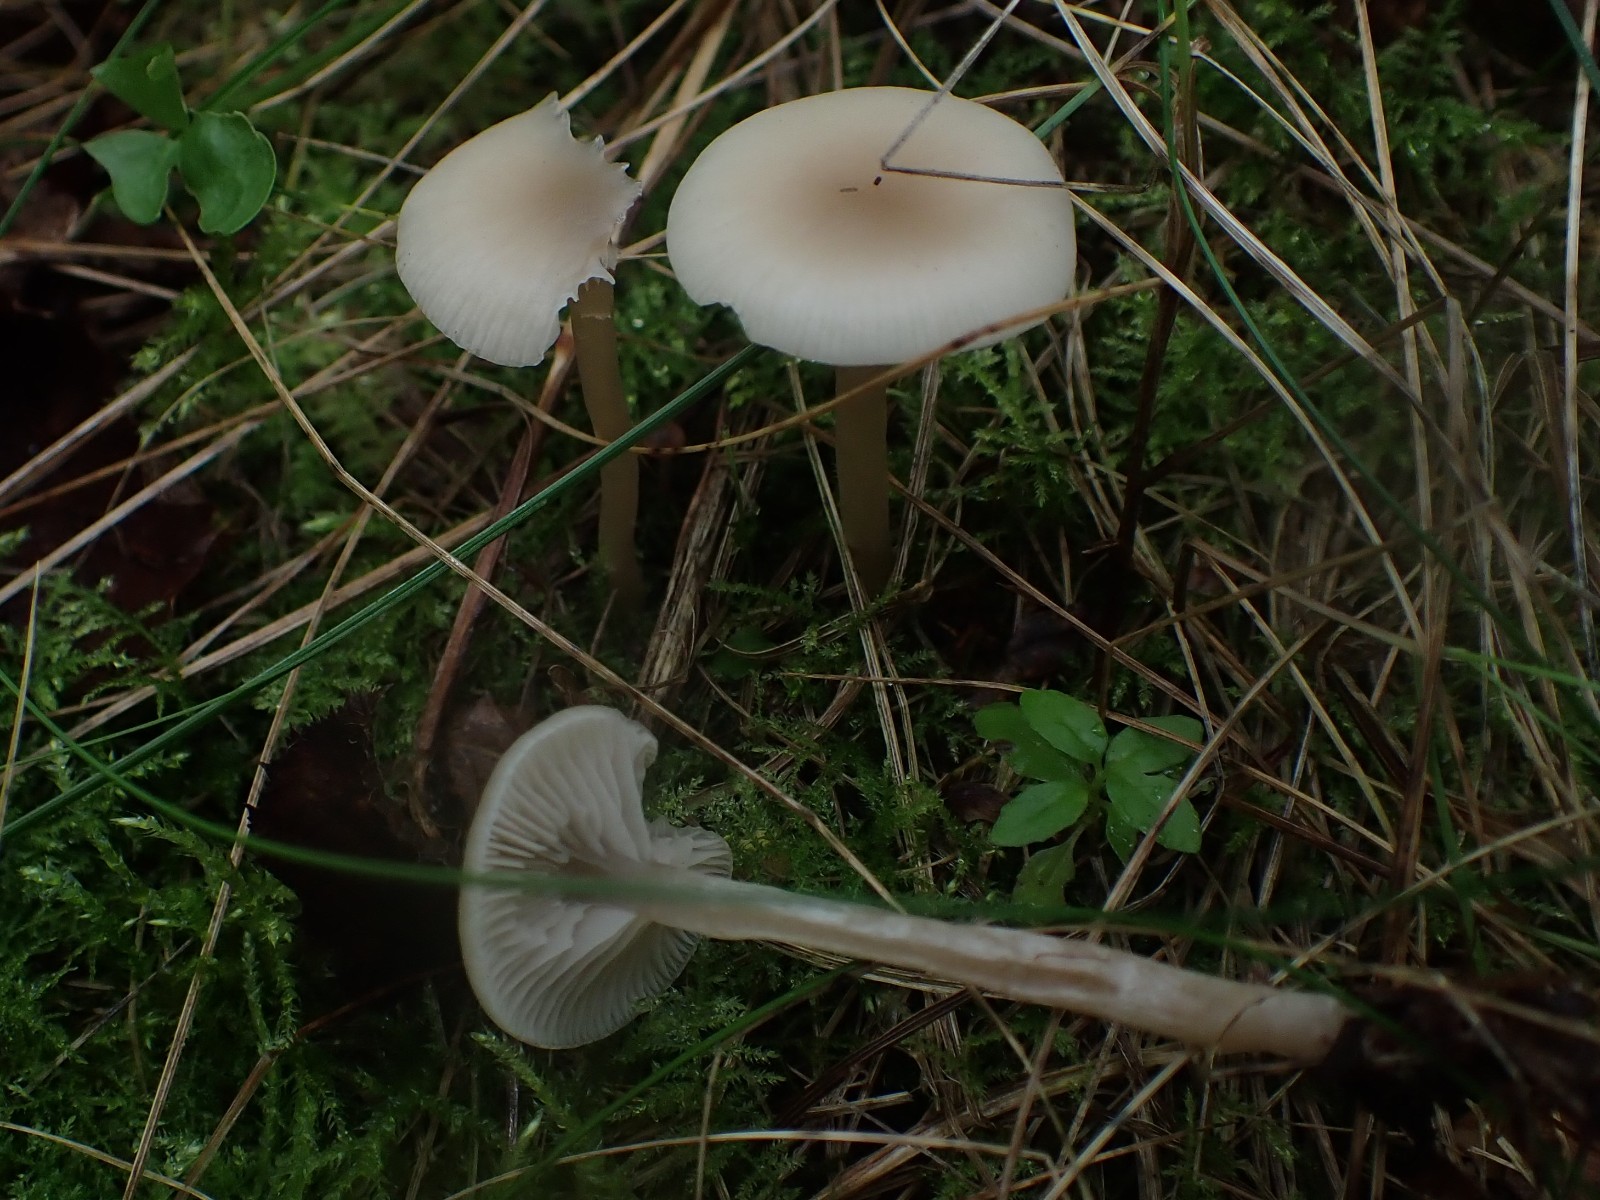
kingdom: Fungi
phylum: Basidiomycota
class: Agaricomycetes
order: Agaricales
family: Tricholomataceae
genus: Clitocybe
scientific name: Clitocybe fragrans
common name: vellugtende tragthat
